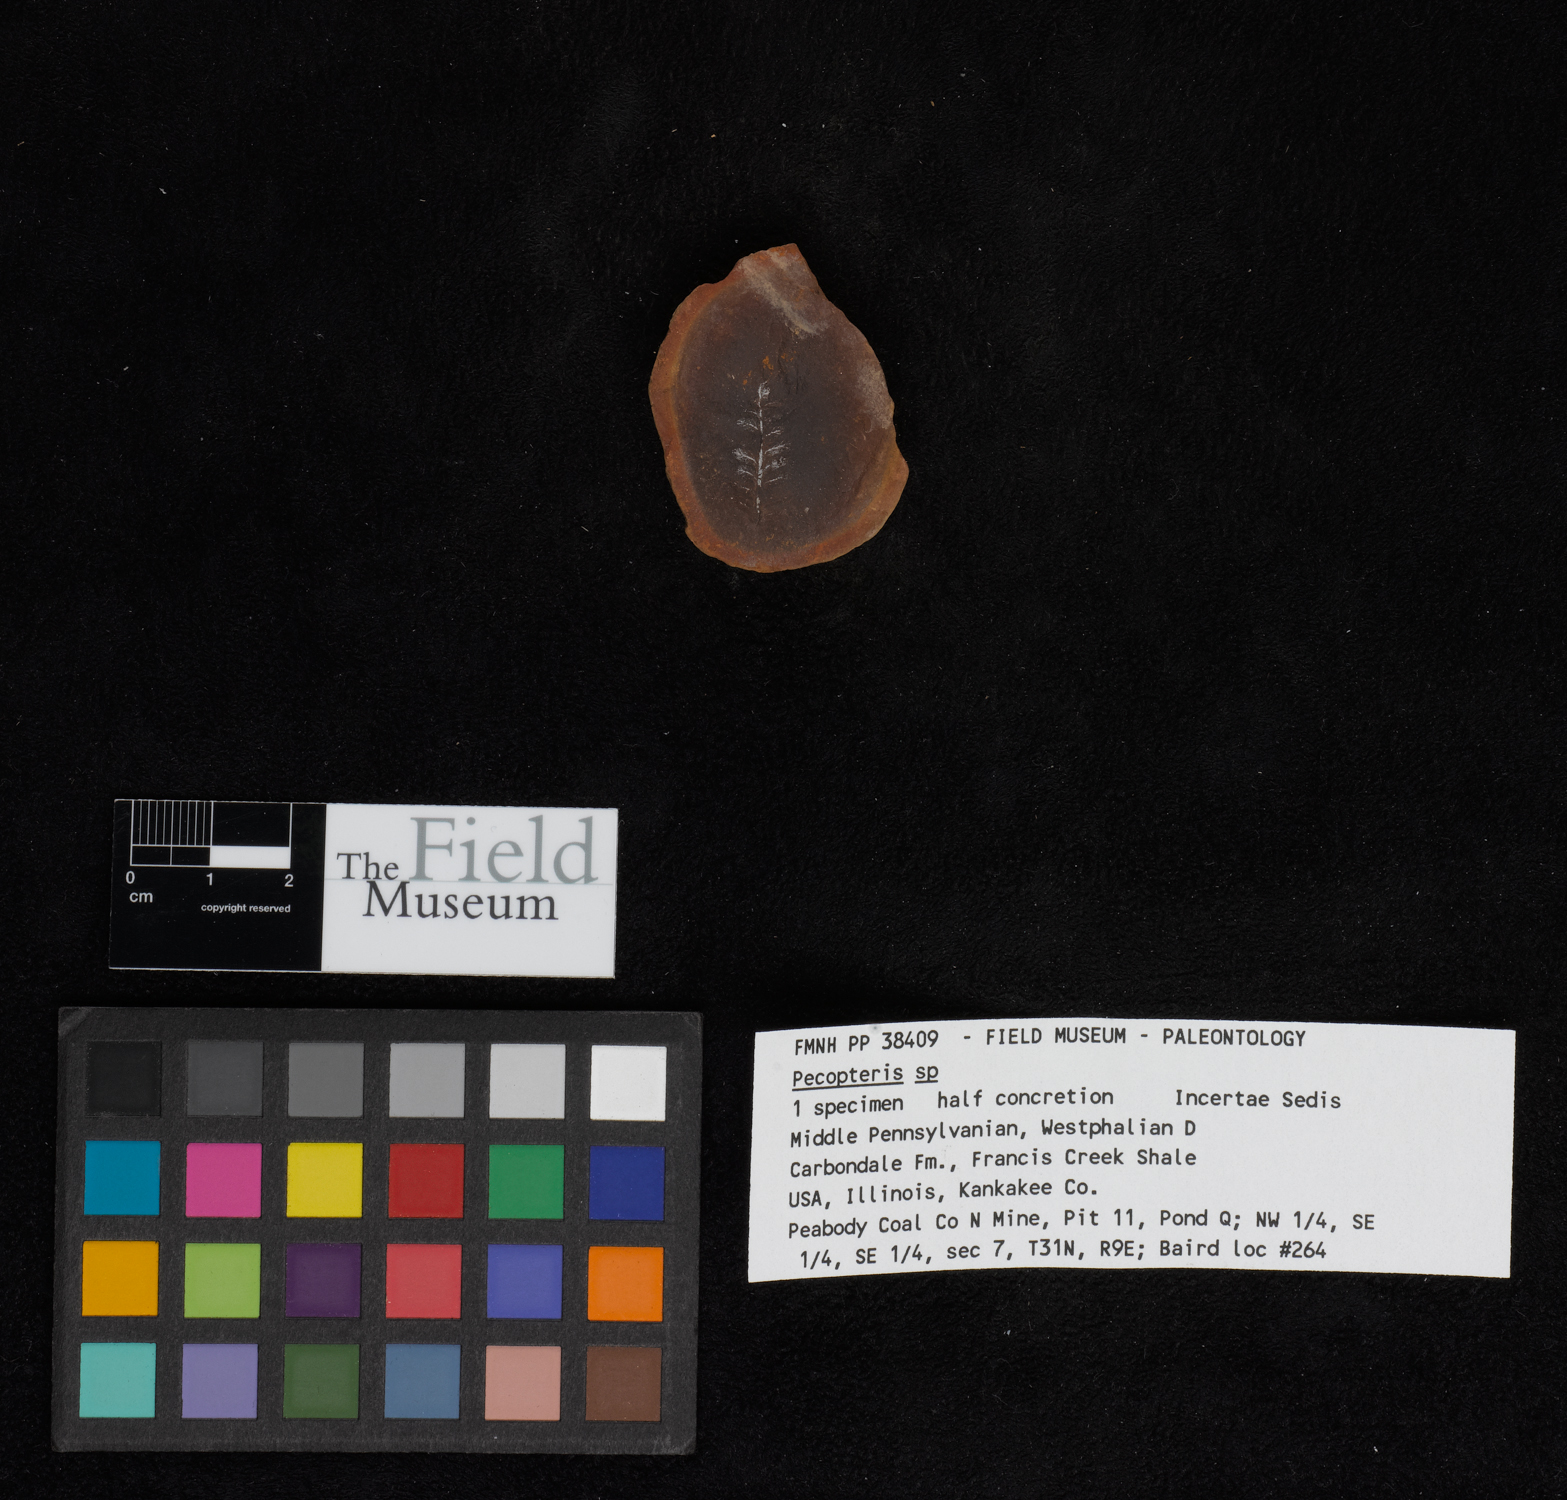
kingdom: Plantae
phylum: Tracheophyta
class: Polypodiopsida
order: Marattiales
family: Asterothecaceae
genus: Pecopteris
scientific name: Pecopteris
